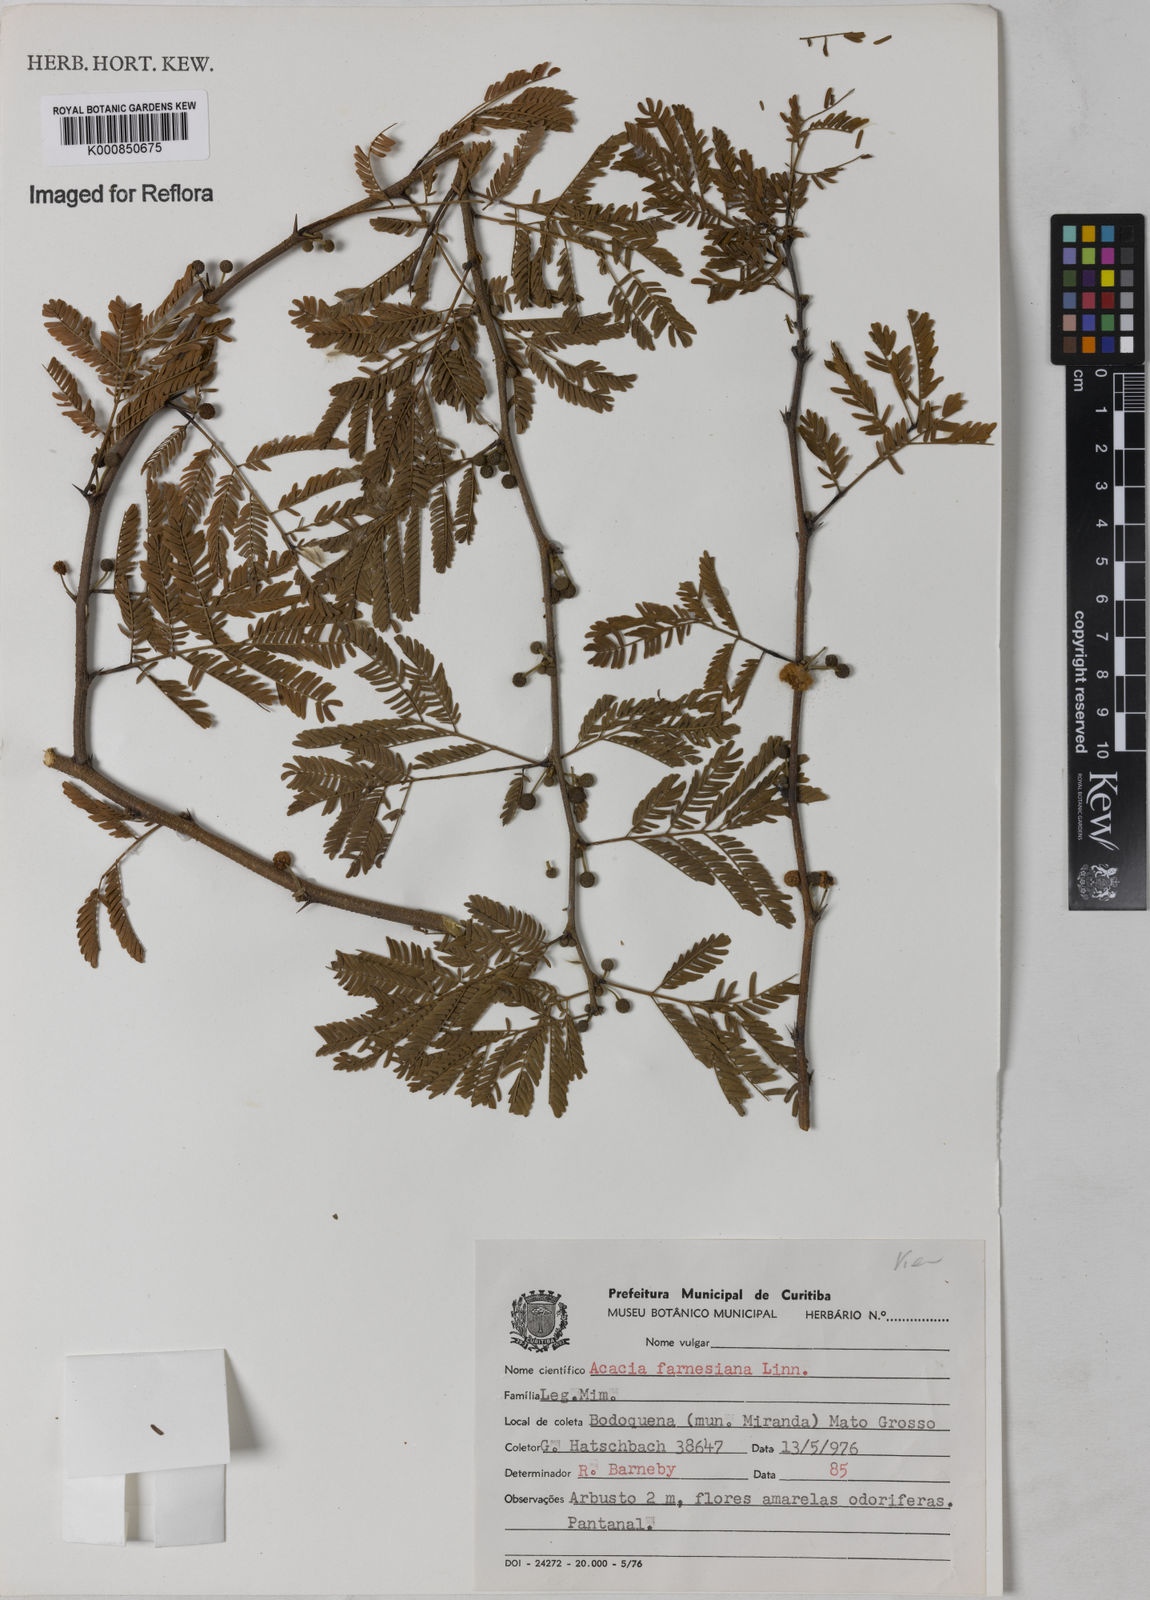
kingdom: Plantae
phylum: Tracheophyta
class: Magnoliopsida
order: Fabales
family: Fabaceae
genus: Vachellia
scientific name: Vachellia farnesiana
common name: Sweet acacia
